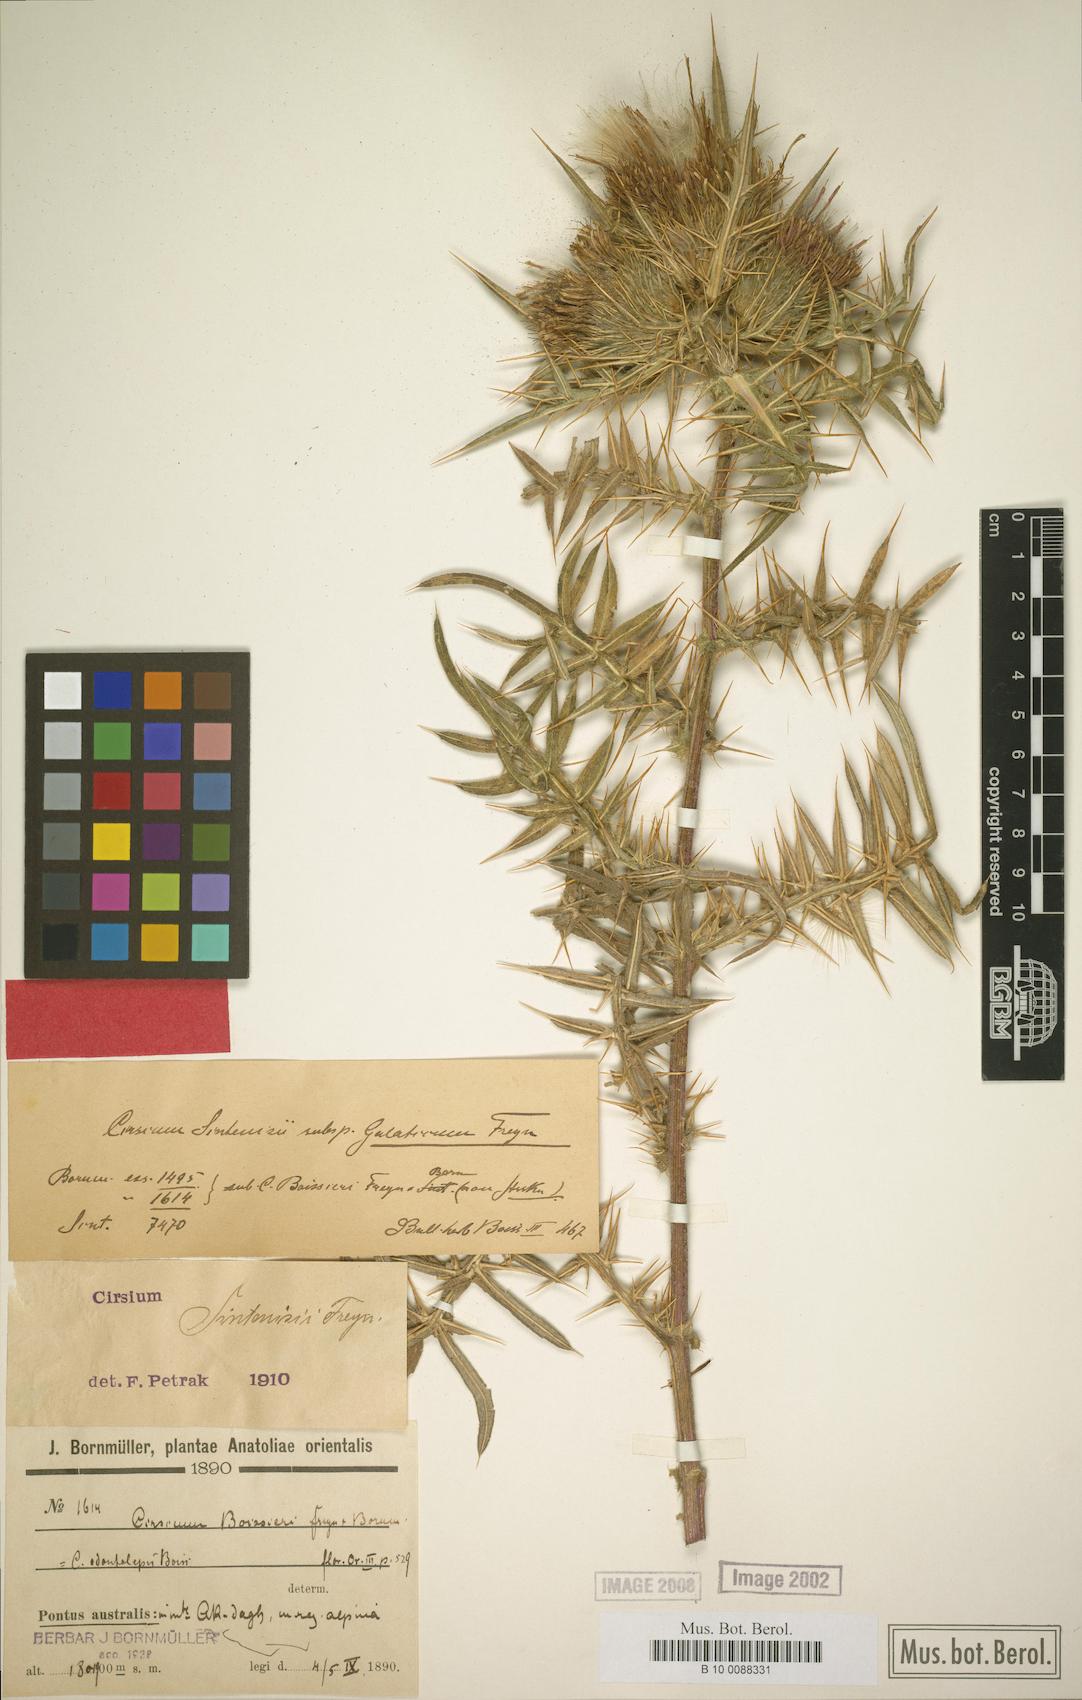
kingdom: Plantae
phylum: Tracheophyta
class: Magnoliopsida
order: Asterales
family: Asteraceae
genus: Lophiolepis
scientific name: Lophiolepis sintenisii
